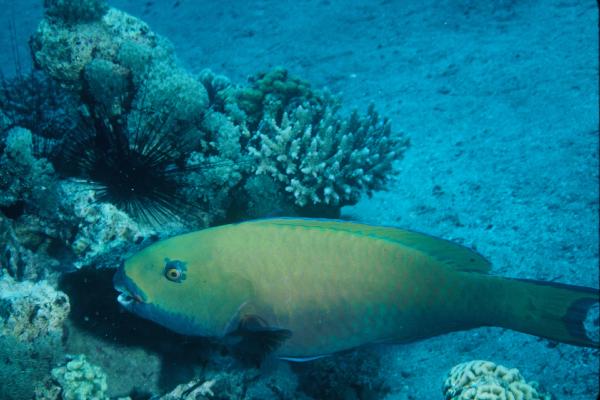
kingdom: Animalia
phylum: Chordata
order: Perciformes
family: Scaridae
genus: Chlorurus
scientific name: Chlorurus gibbus
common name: Heavybeak parrotfish
